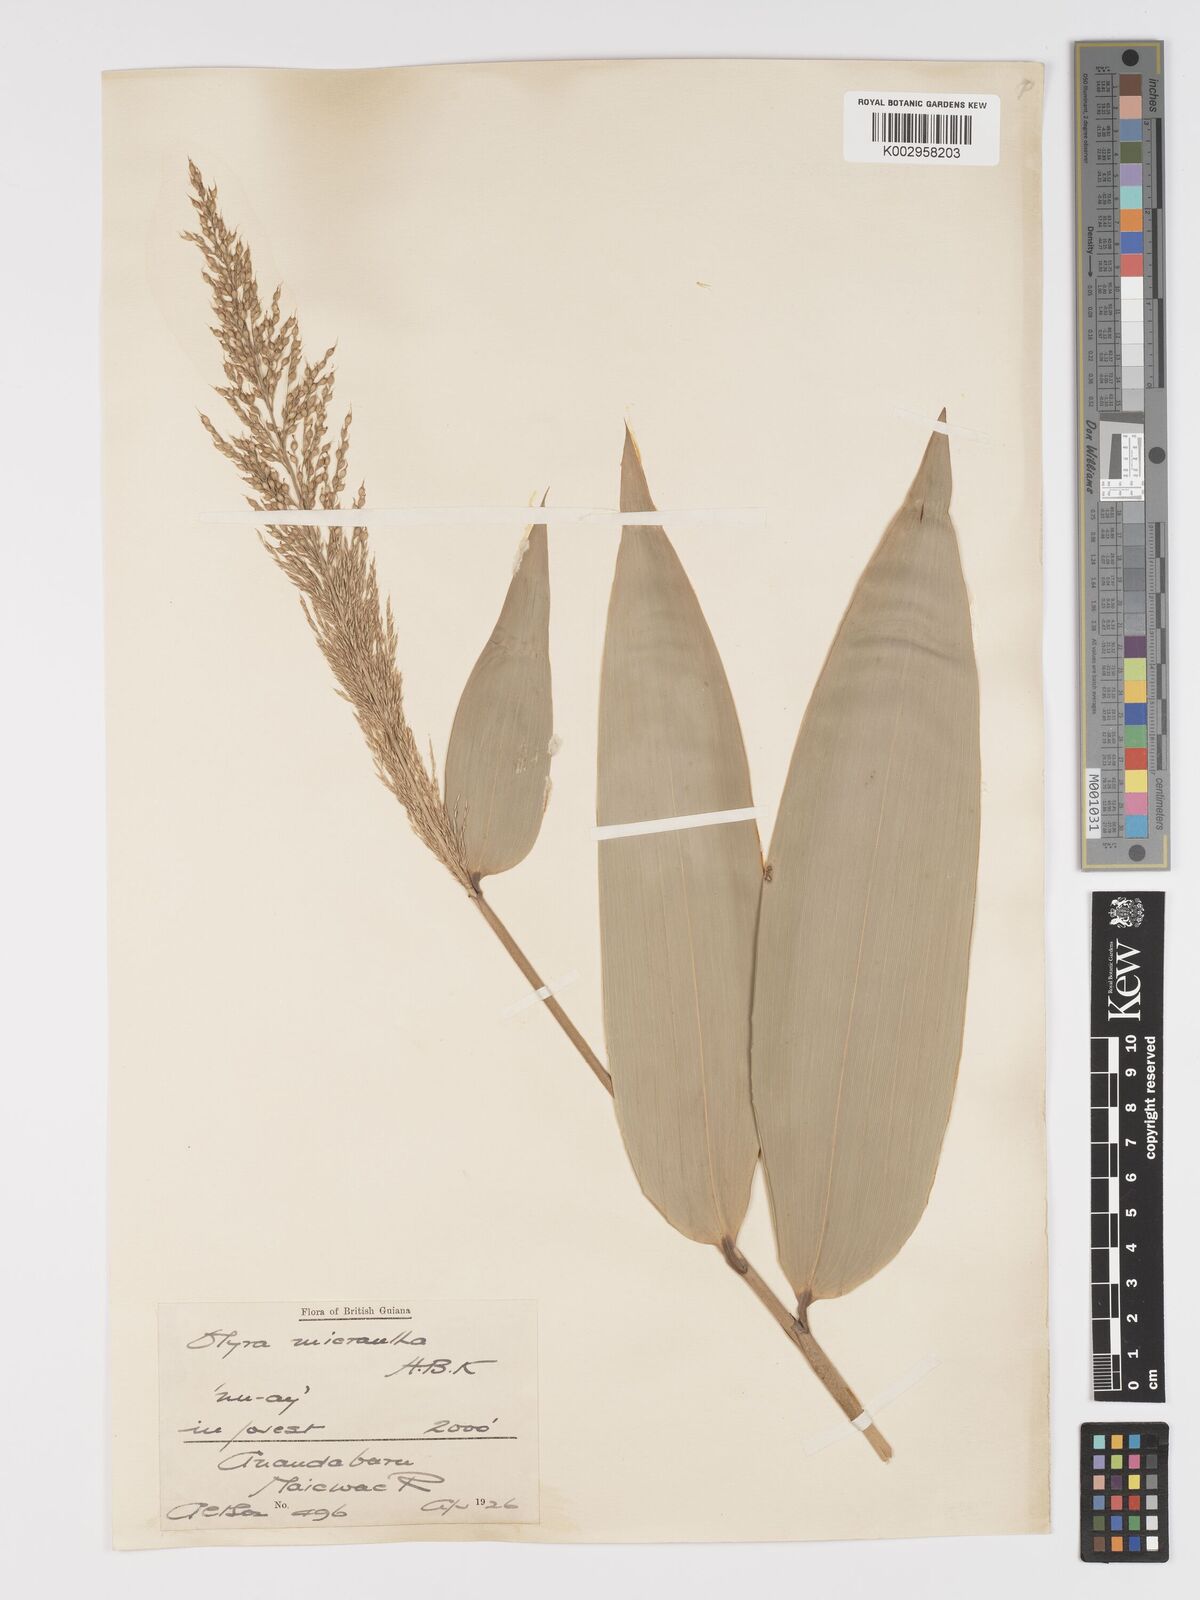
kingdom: Plantae
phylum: Tracheophyta
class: Liliopsida
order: Poales
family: Poaceae
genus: Taquara
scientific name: Taquara micrantha
